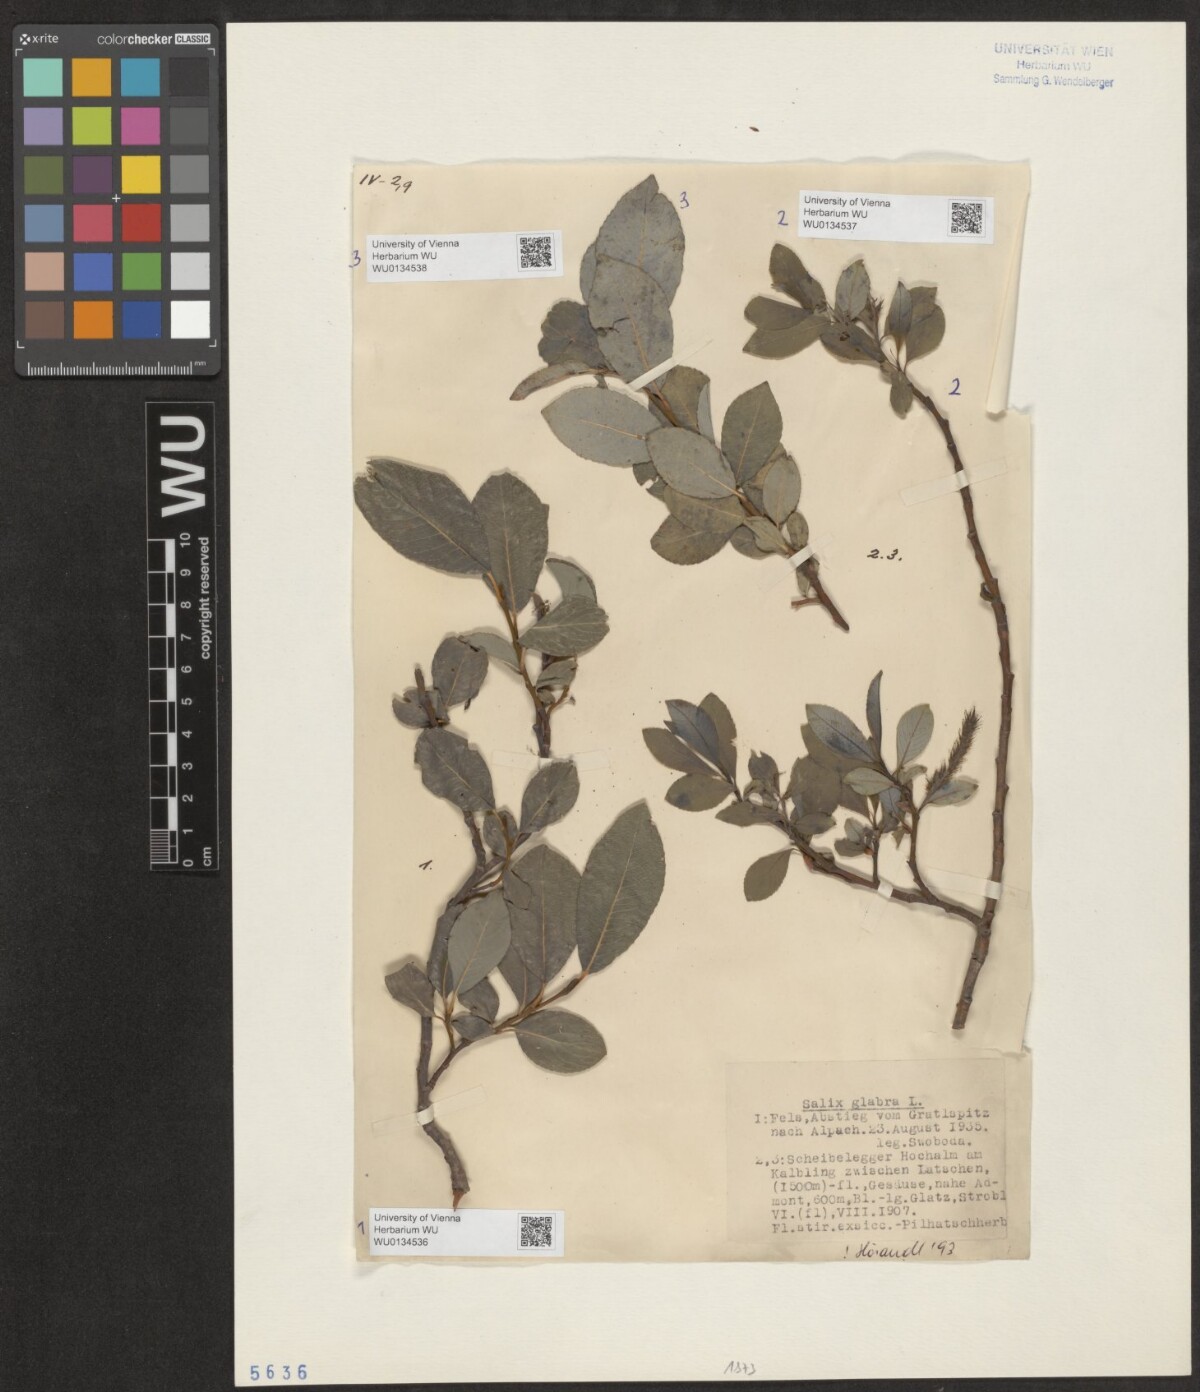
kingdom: Plantae
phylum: Tracheophyta
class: Magnoliopsida
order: Malpighiales
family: Salicaceae
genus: Salix
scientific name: Salix glabra
